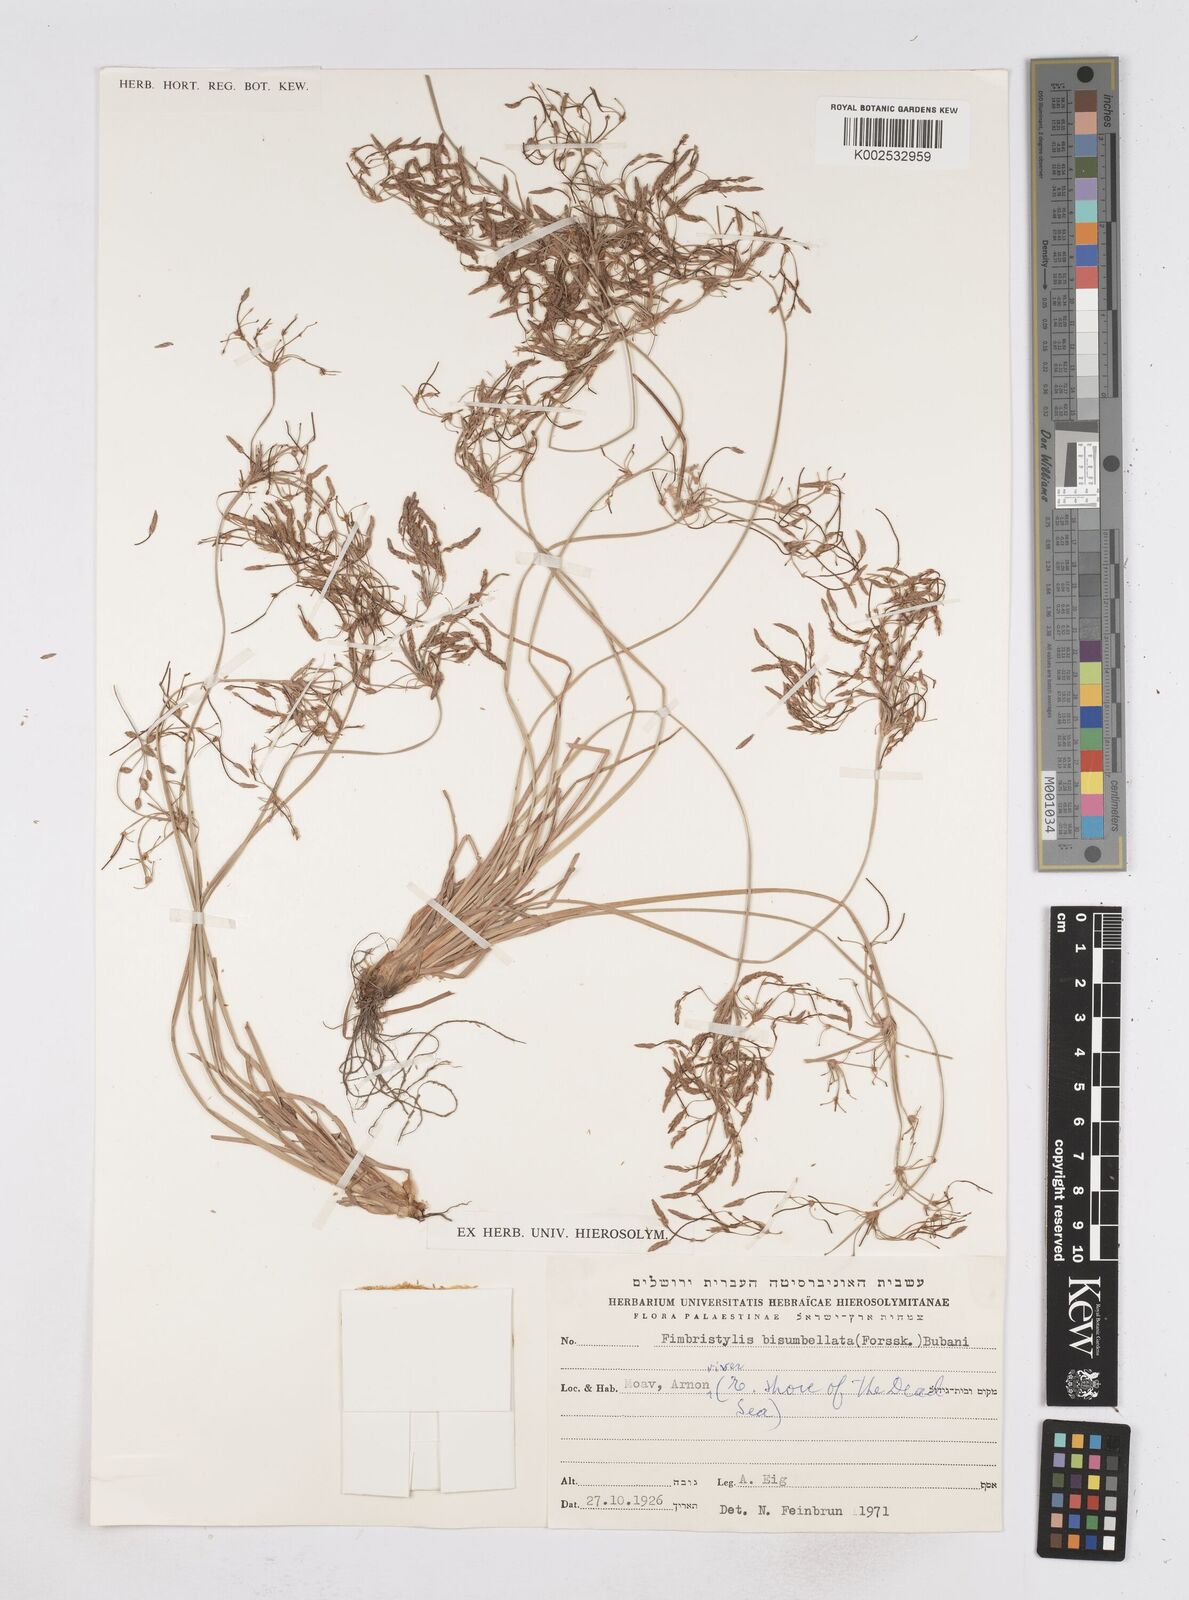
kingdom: Plantae
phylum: Tracheophyta
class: Liliopsida
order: Poales
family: Cyperaceae
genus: Fimbristylis
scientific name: Fimbristylis bisumbellata
